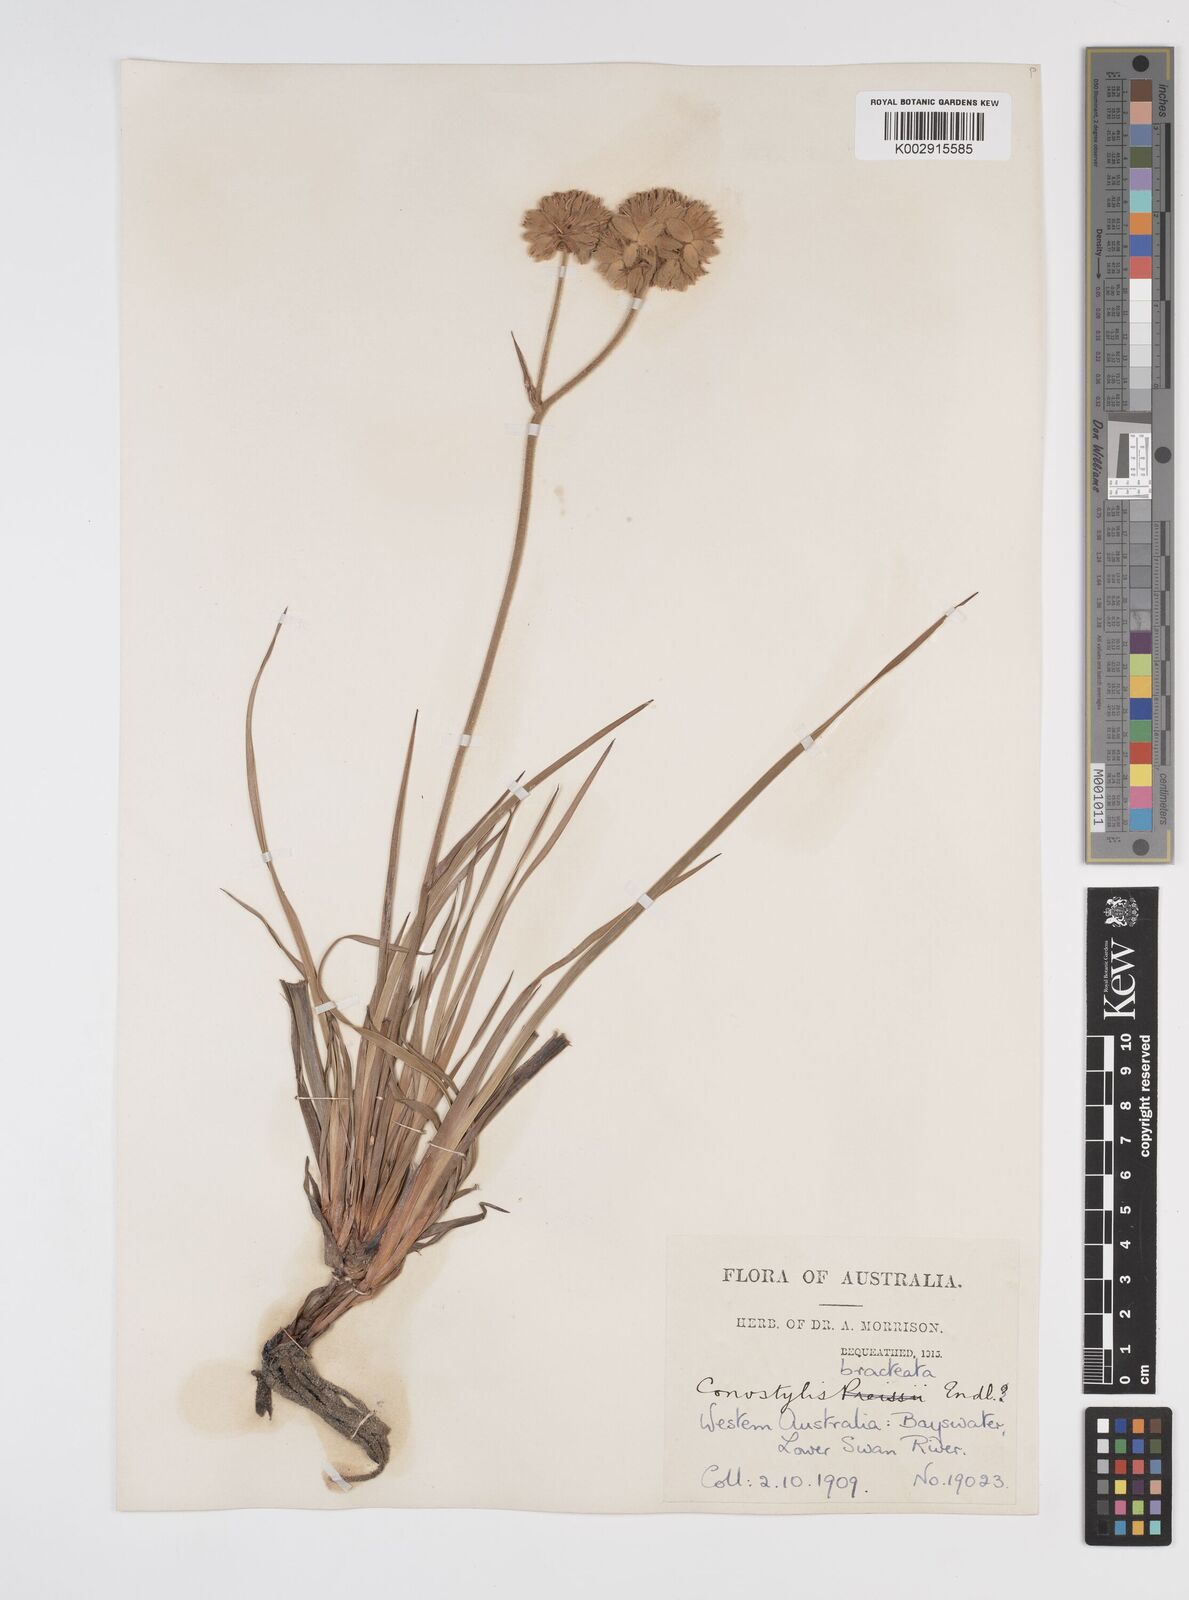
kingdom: Plantae
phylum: Tracheophyta
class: Liliopsida
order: Commelinales
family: Haemodoraceae
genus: Conostylis
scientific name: Conostylis bracteata
